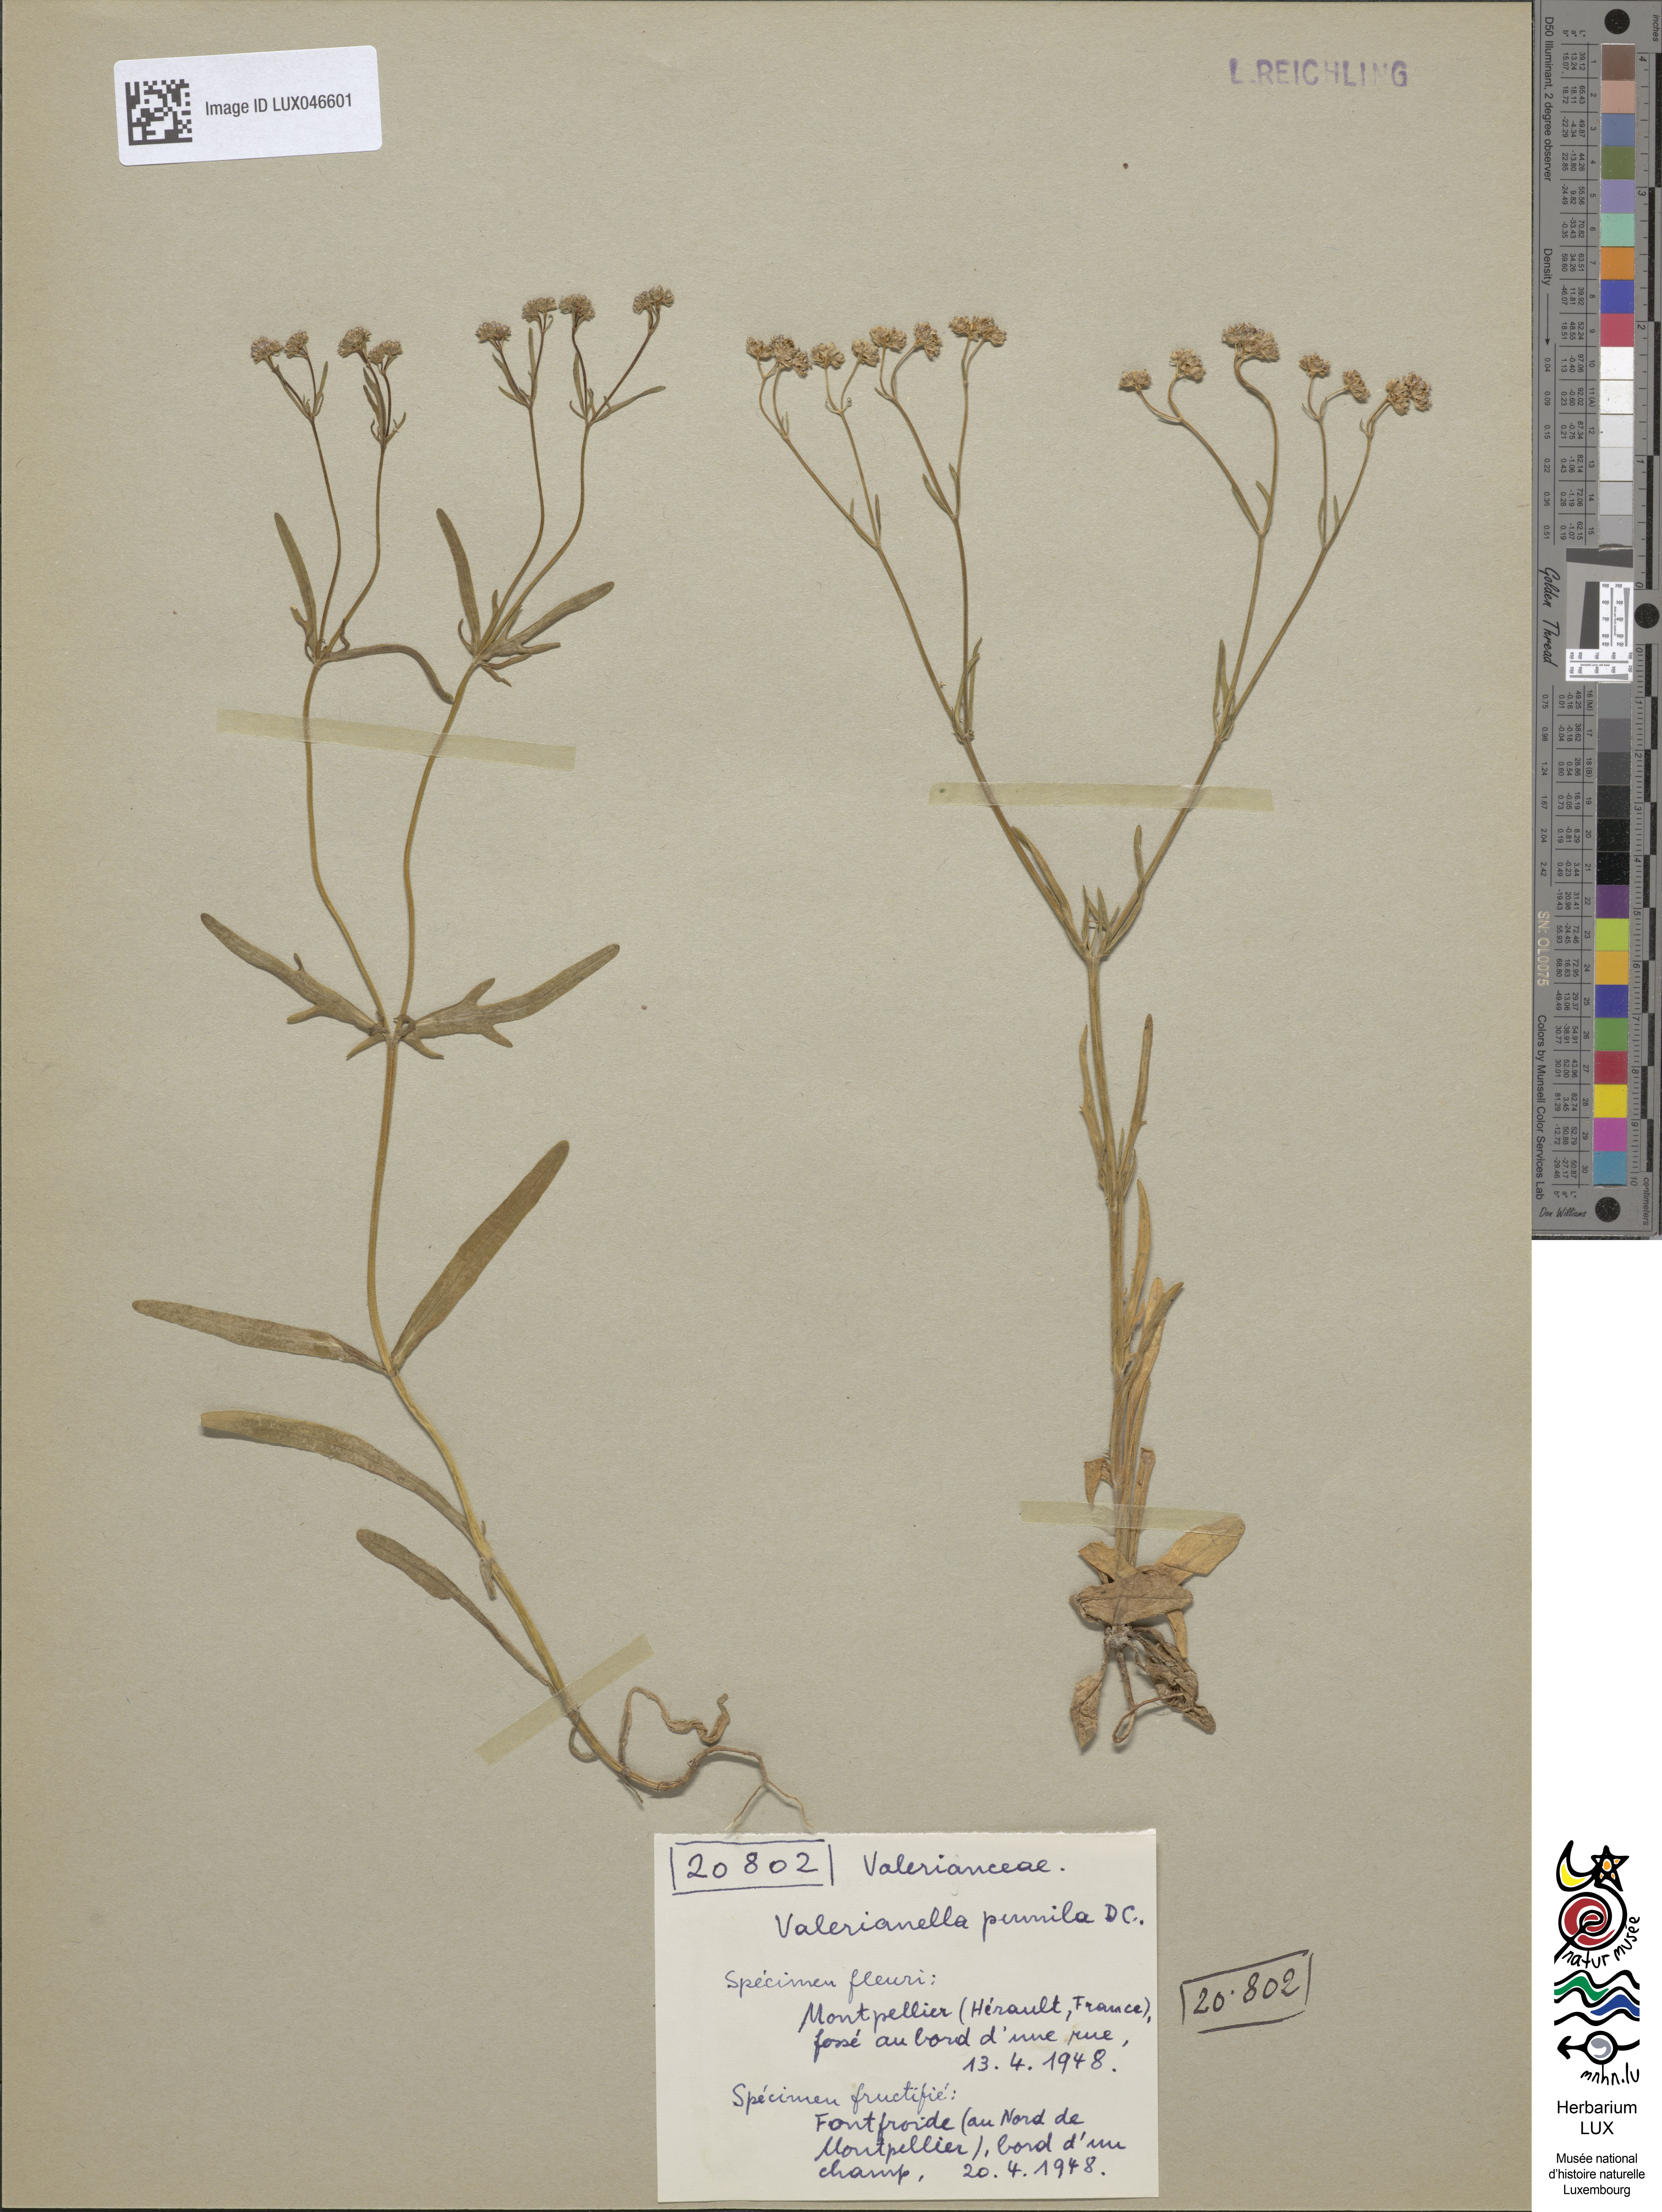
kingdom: Plantae
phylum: Tracheophyta
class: Magnoliopsida
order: Dipsacales
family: Caprifoliaceae
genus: Valerianella
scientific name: Valerianella pumila
